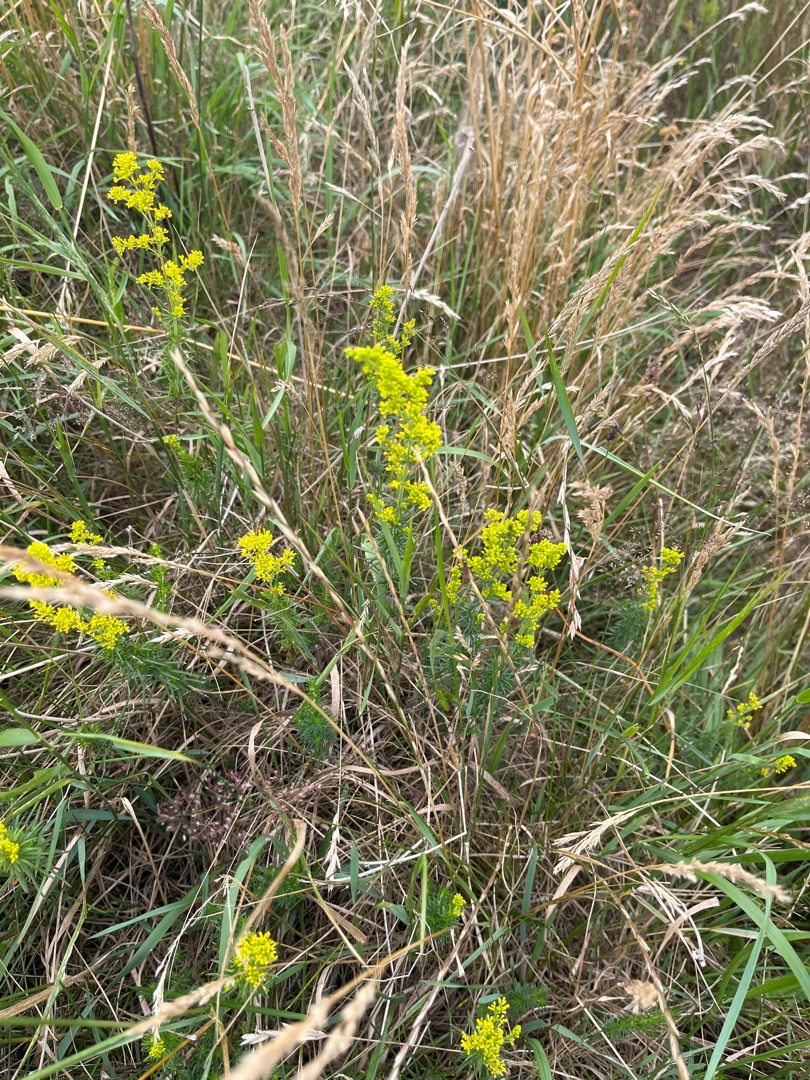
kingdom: Plantae
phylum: Tracheophyta
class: Magnoliopsida
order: Gentianales
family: Rubiaceae
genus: Galium
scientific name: Galium verum
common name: Gul snerre
